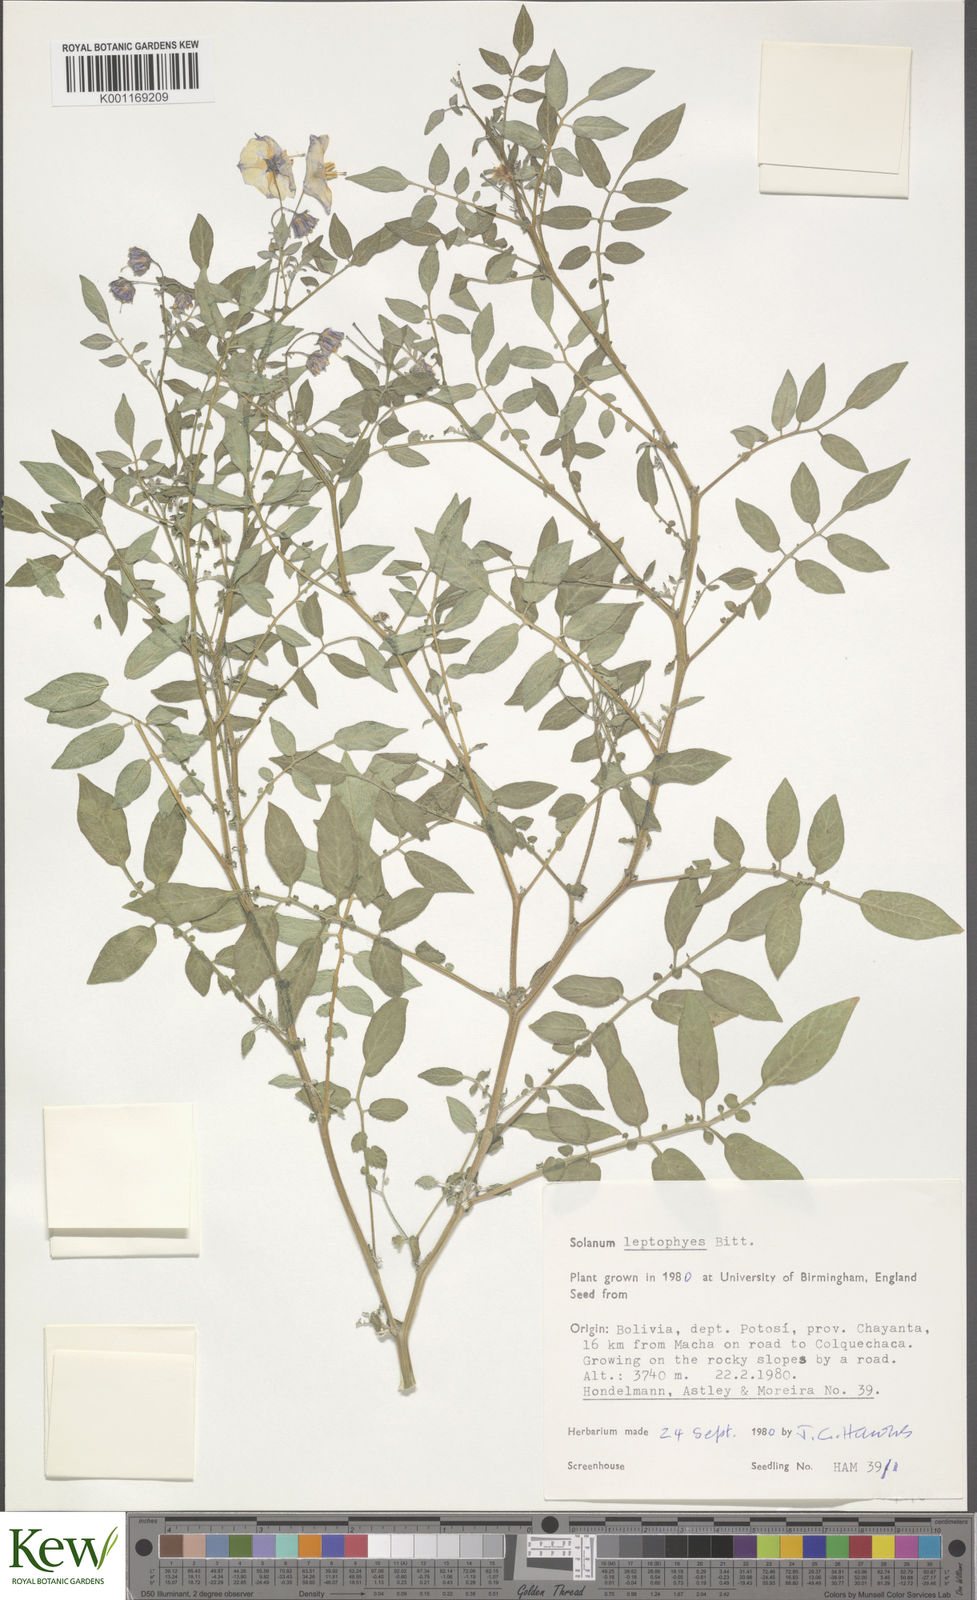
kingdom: Plantae
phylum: Tracheophyta
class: Magnoliopsida
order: Solanales
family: Solanaceae
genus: Solanum
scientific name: Solanum brevicaule
